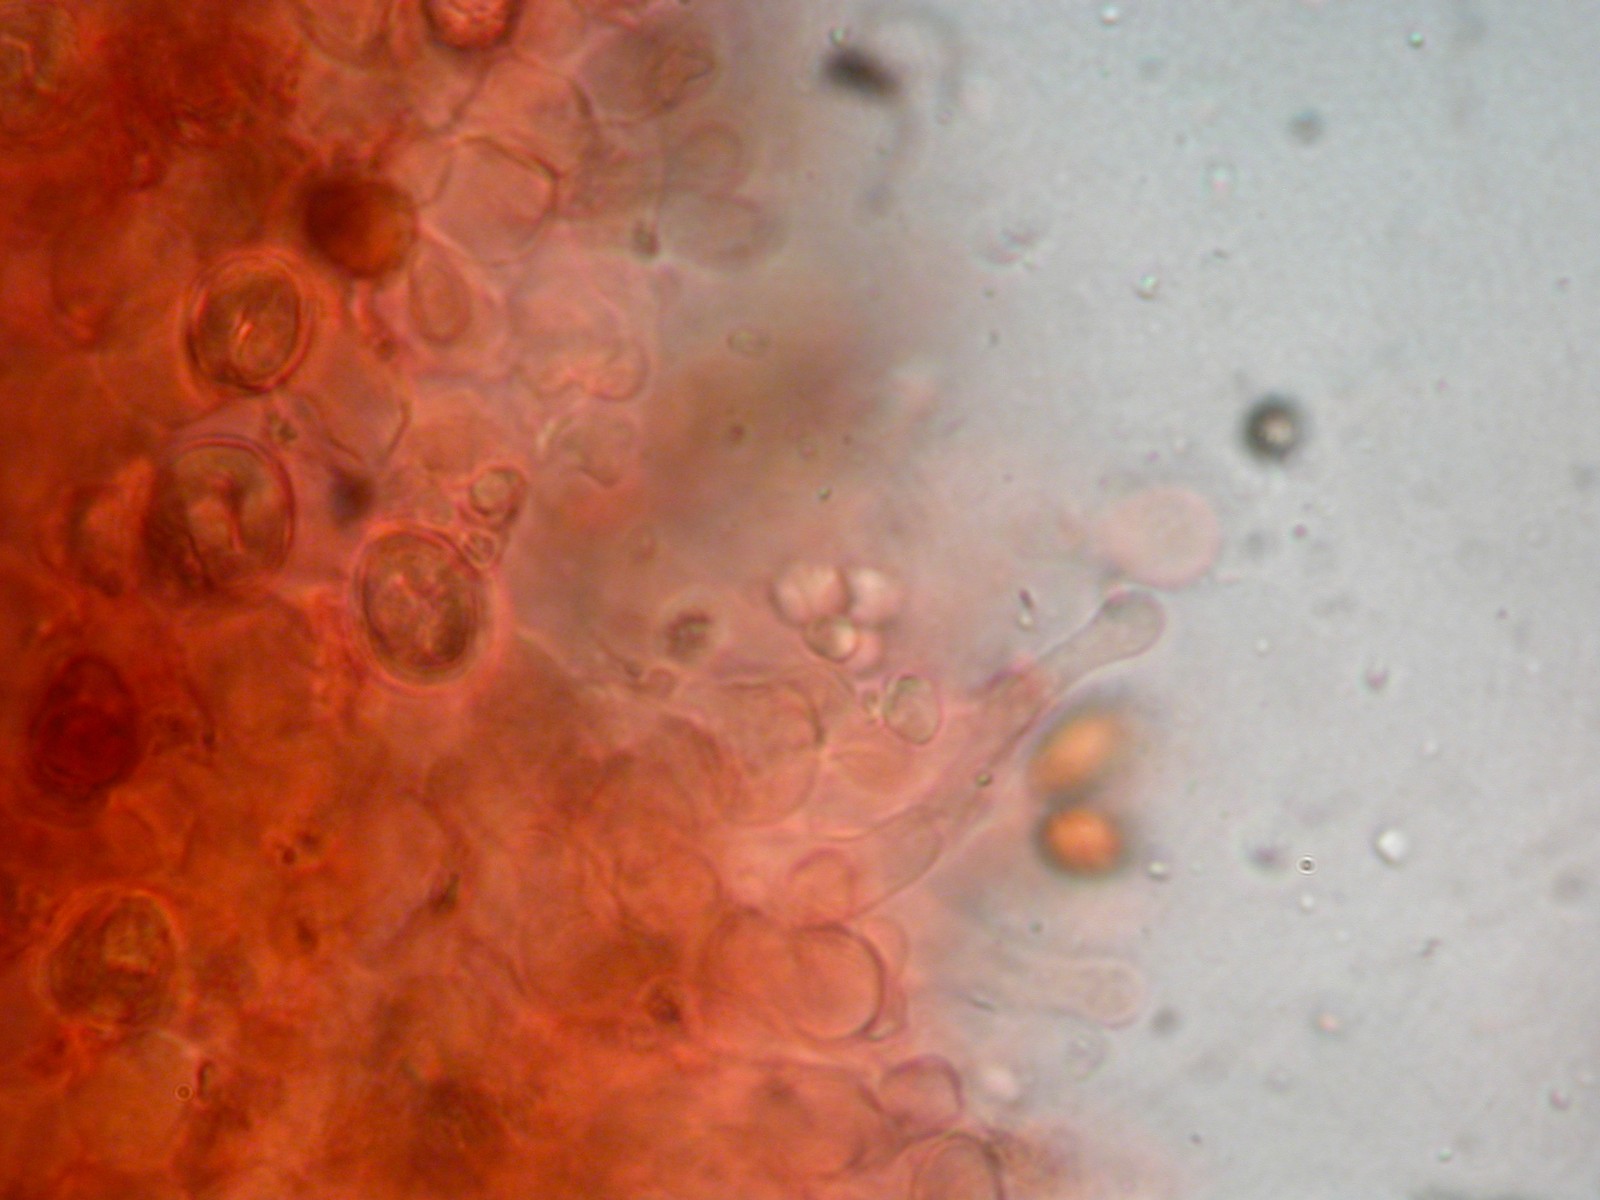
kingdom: Fungi
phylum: Basidiomycota
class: Agaricomycetes
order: Agaricales
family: Hymenogastraceae
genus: Gymnopilus
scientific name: Gymnopilus decipiens
